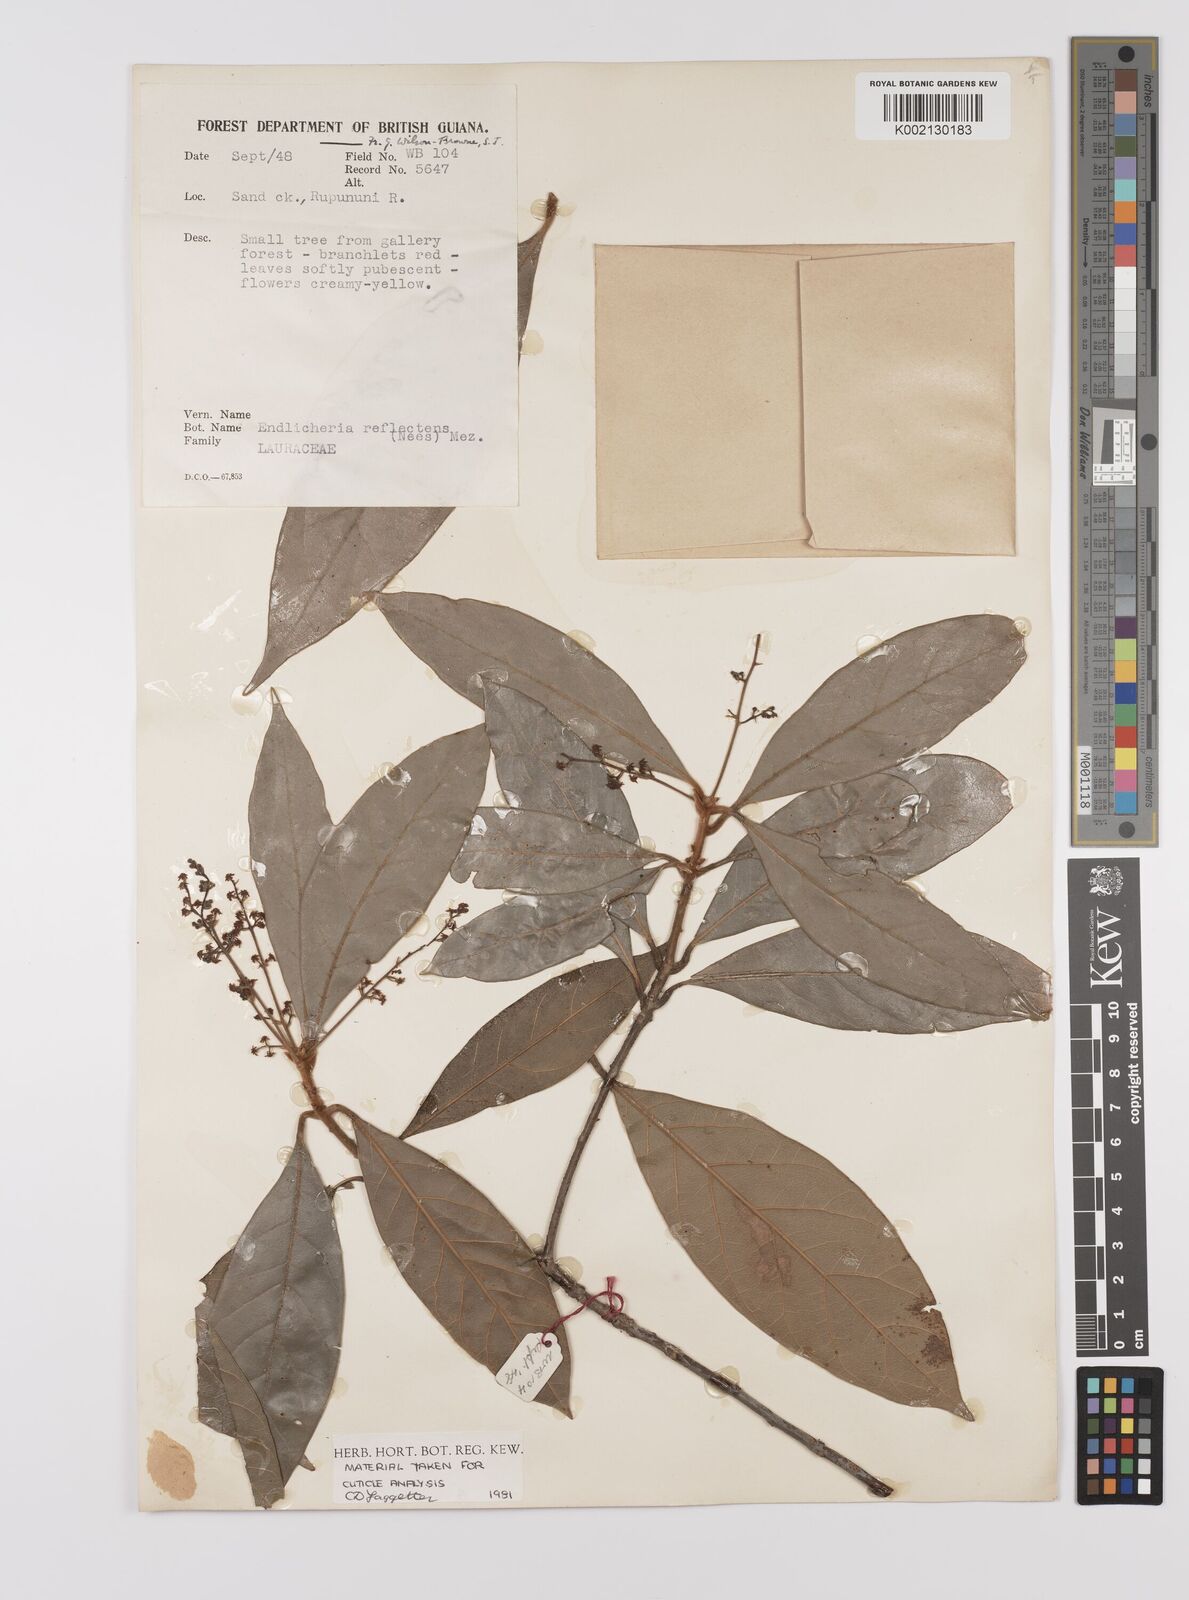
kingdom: Plantae
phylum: Tracheophyta
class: Magnoliopsida
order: Laurales
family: Lauraceae
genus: Endlicheria
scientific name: Endlicheria reflectens
